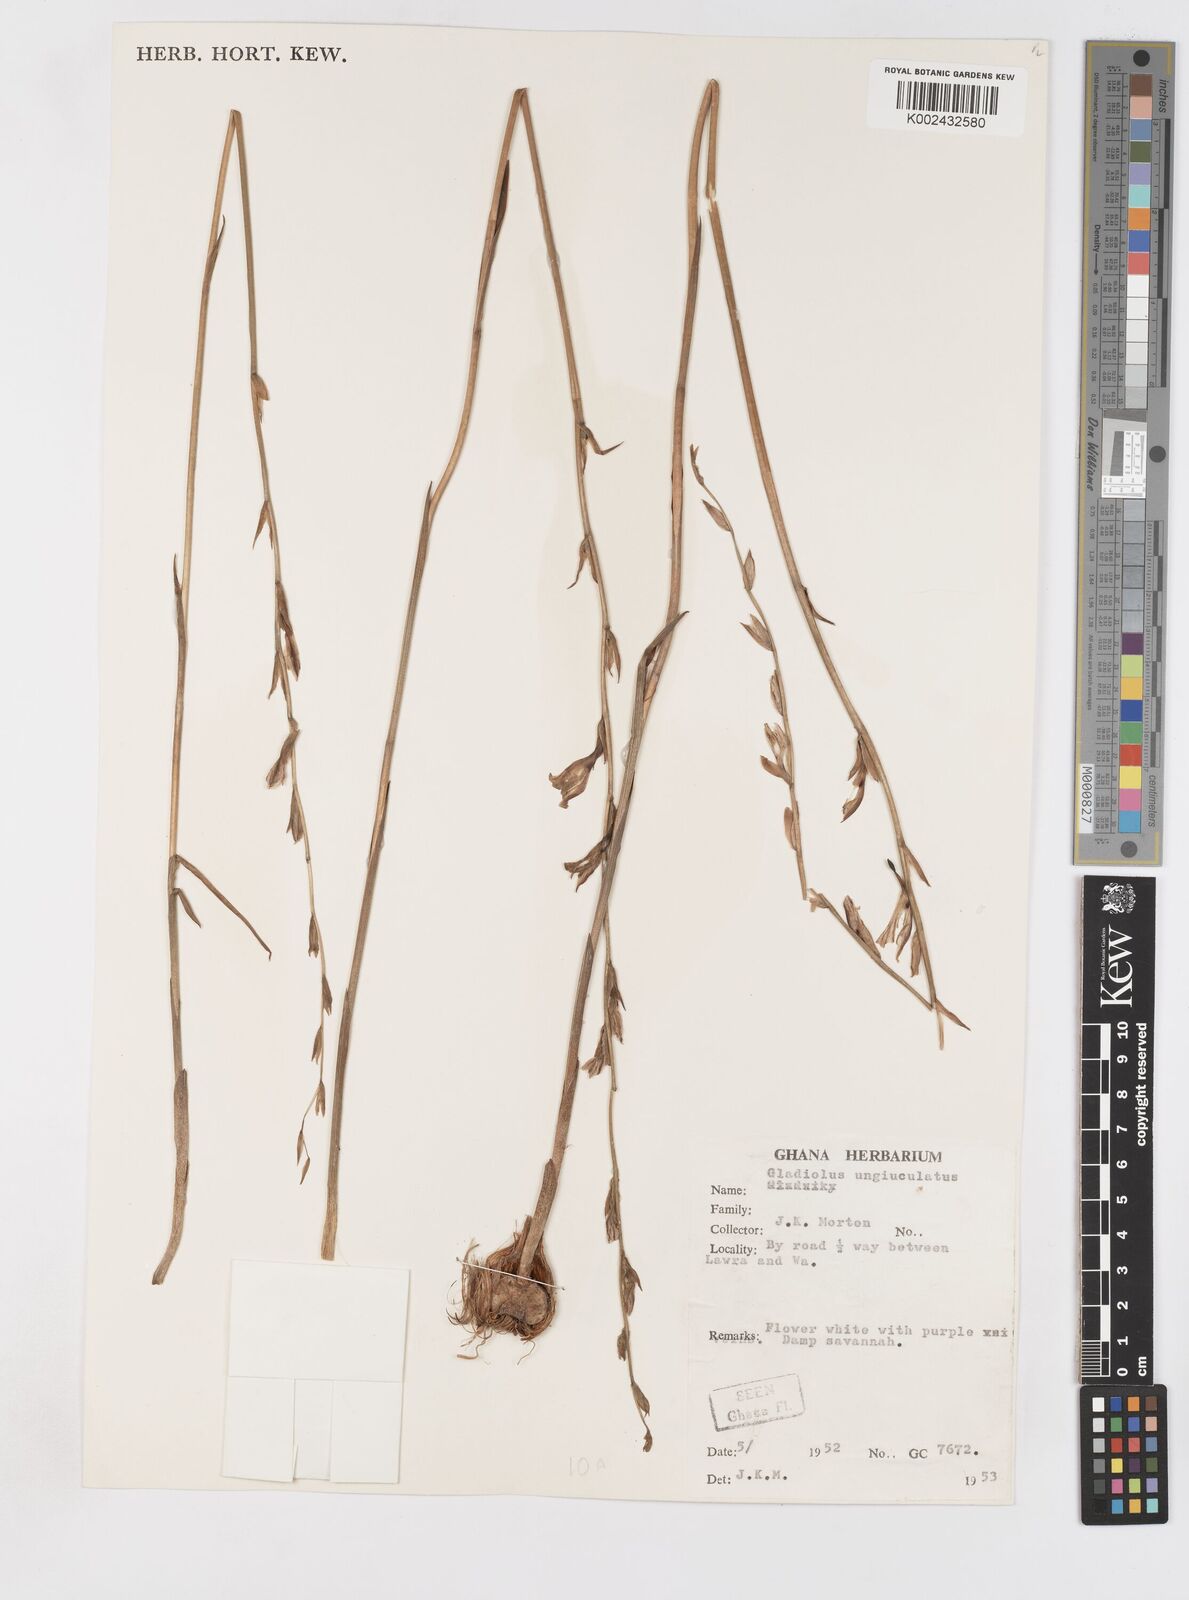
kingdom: Plantae
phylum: Tracheophyta
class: Liliopsida
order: Asparagales
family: Iridaceae
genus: Gladiolus
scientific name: Gladiolus unguiculatus
